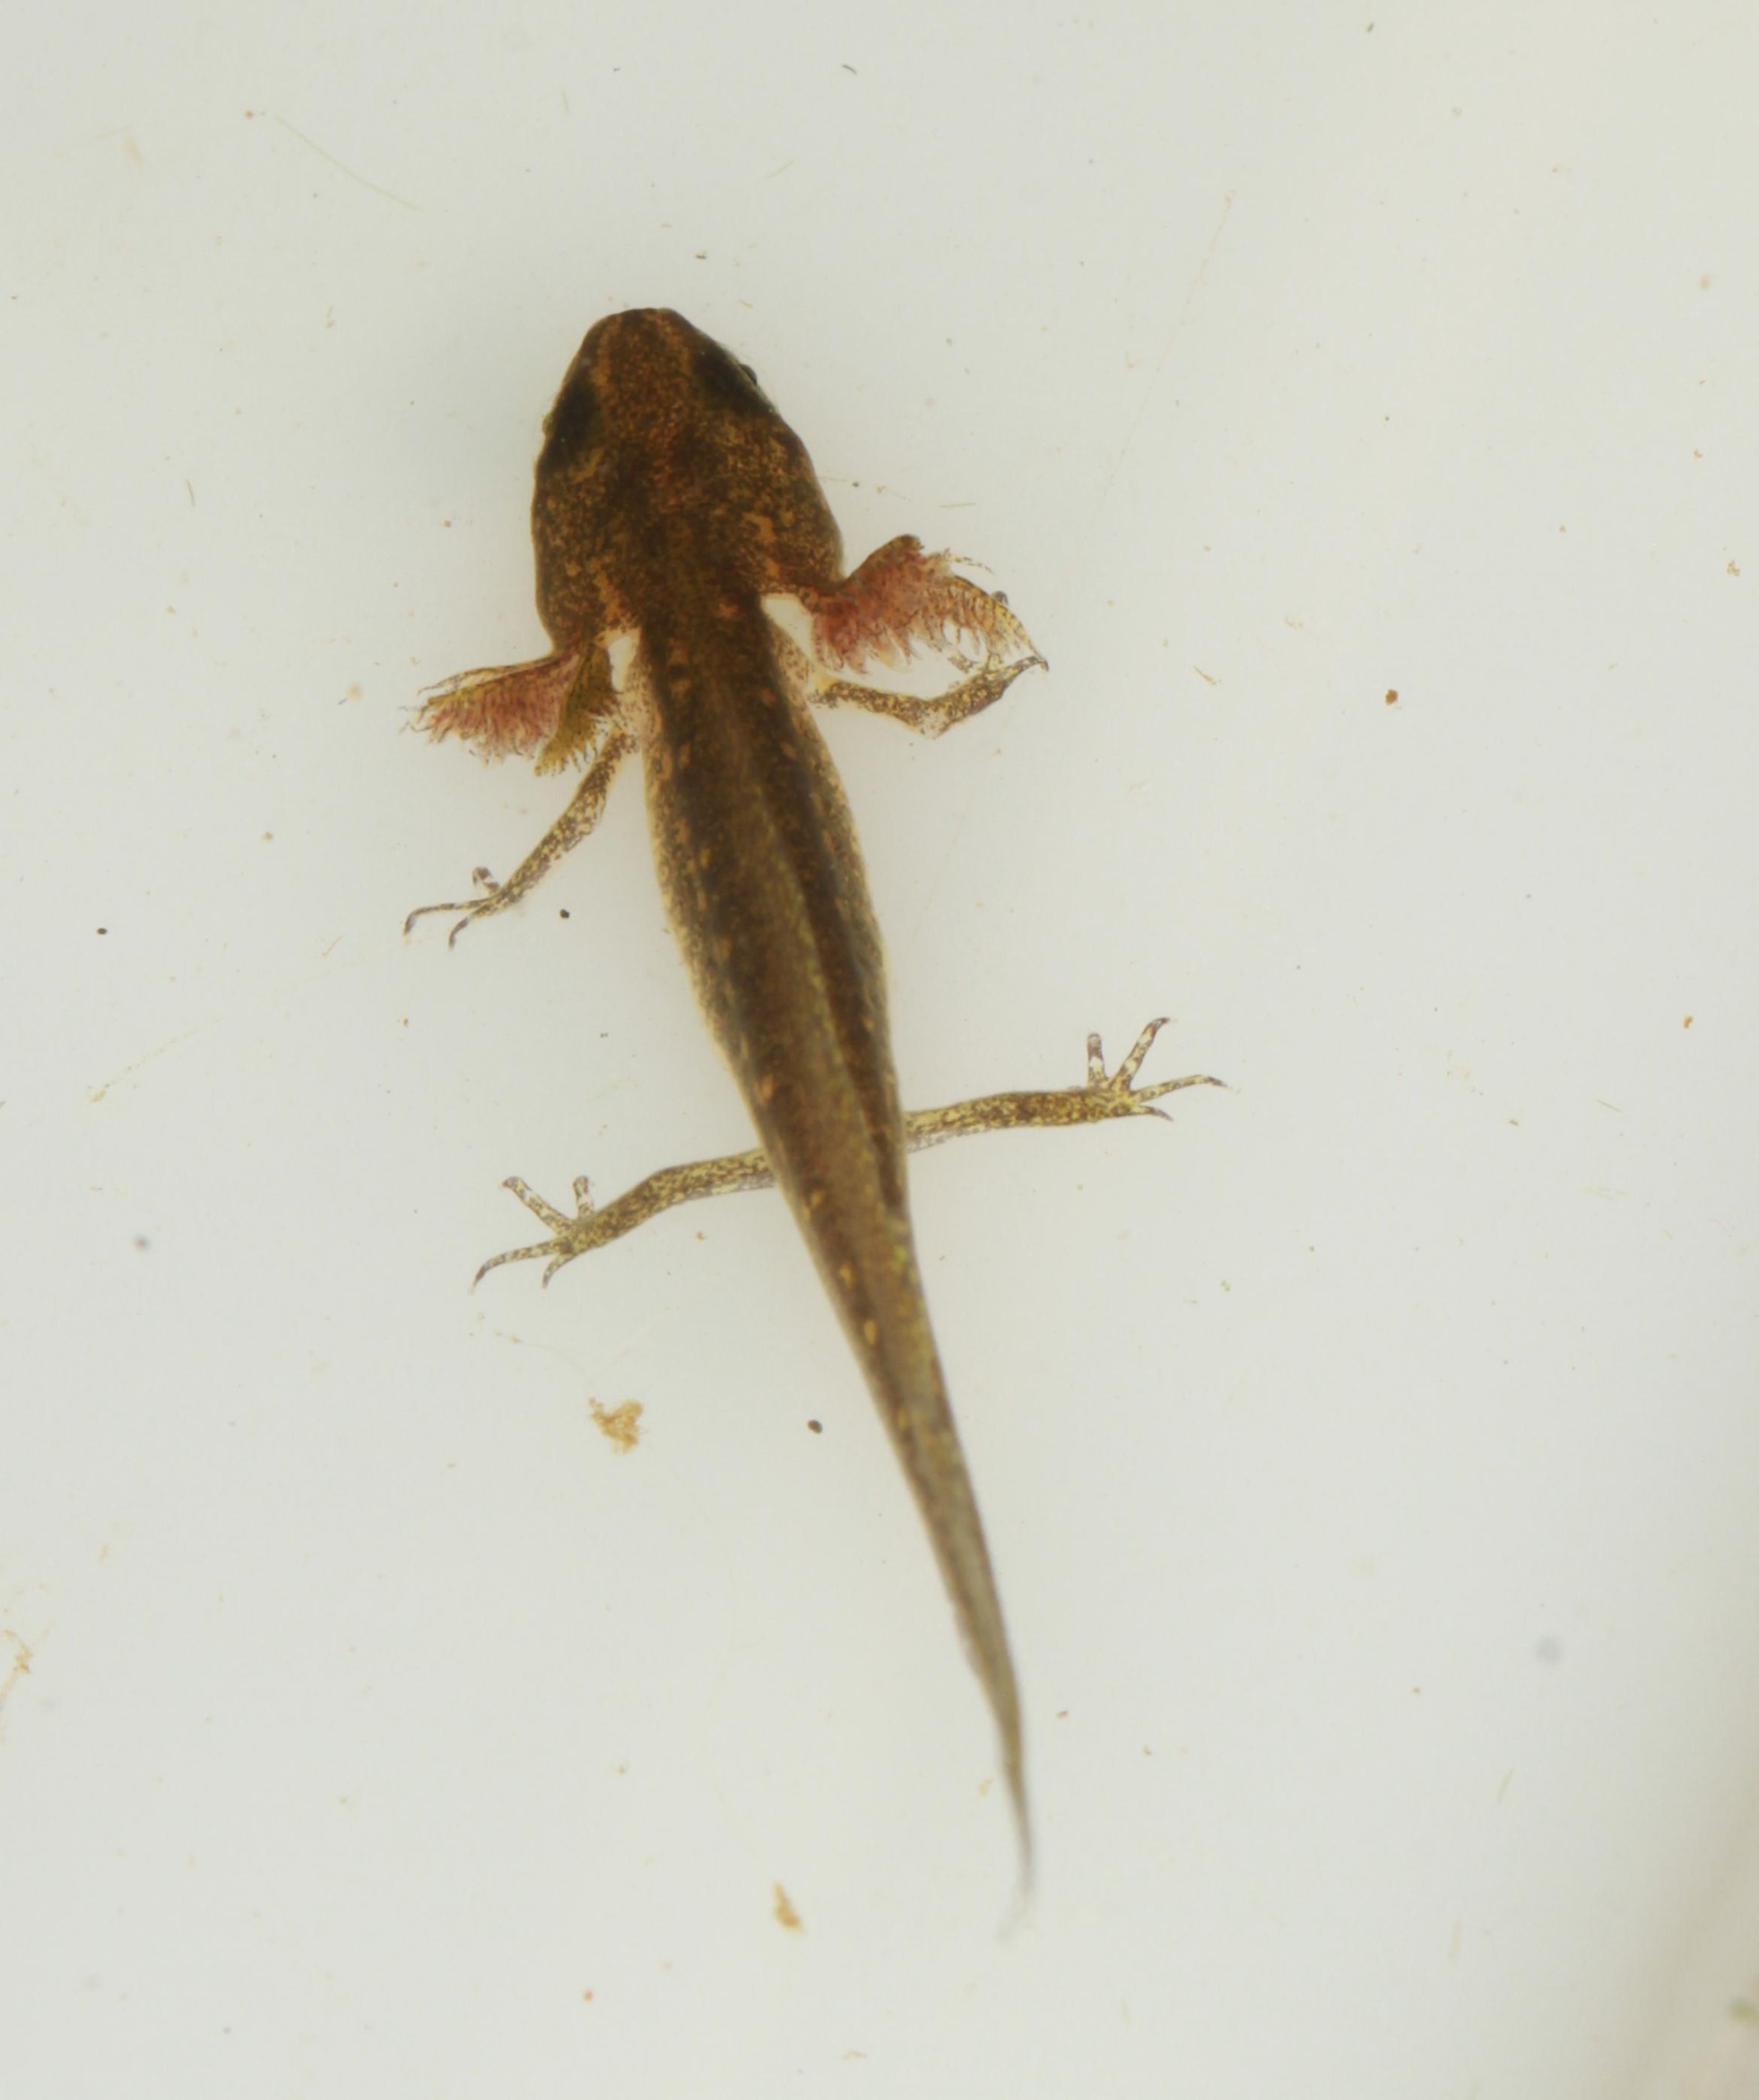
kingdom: Animalia
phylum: Chordata
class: Amphibia
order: Caudata
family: Salamandridae
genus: Lissotriton
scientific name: Lissotriton vulgaris
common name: Lille vandsalamander
